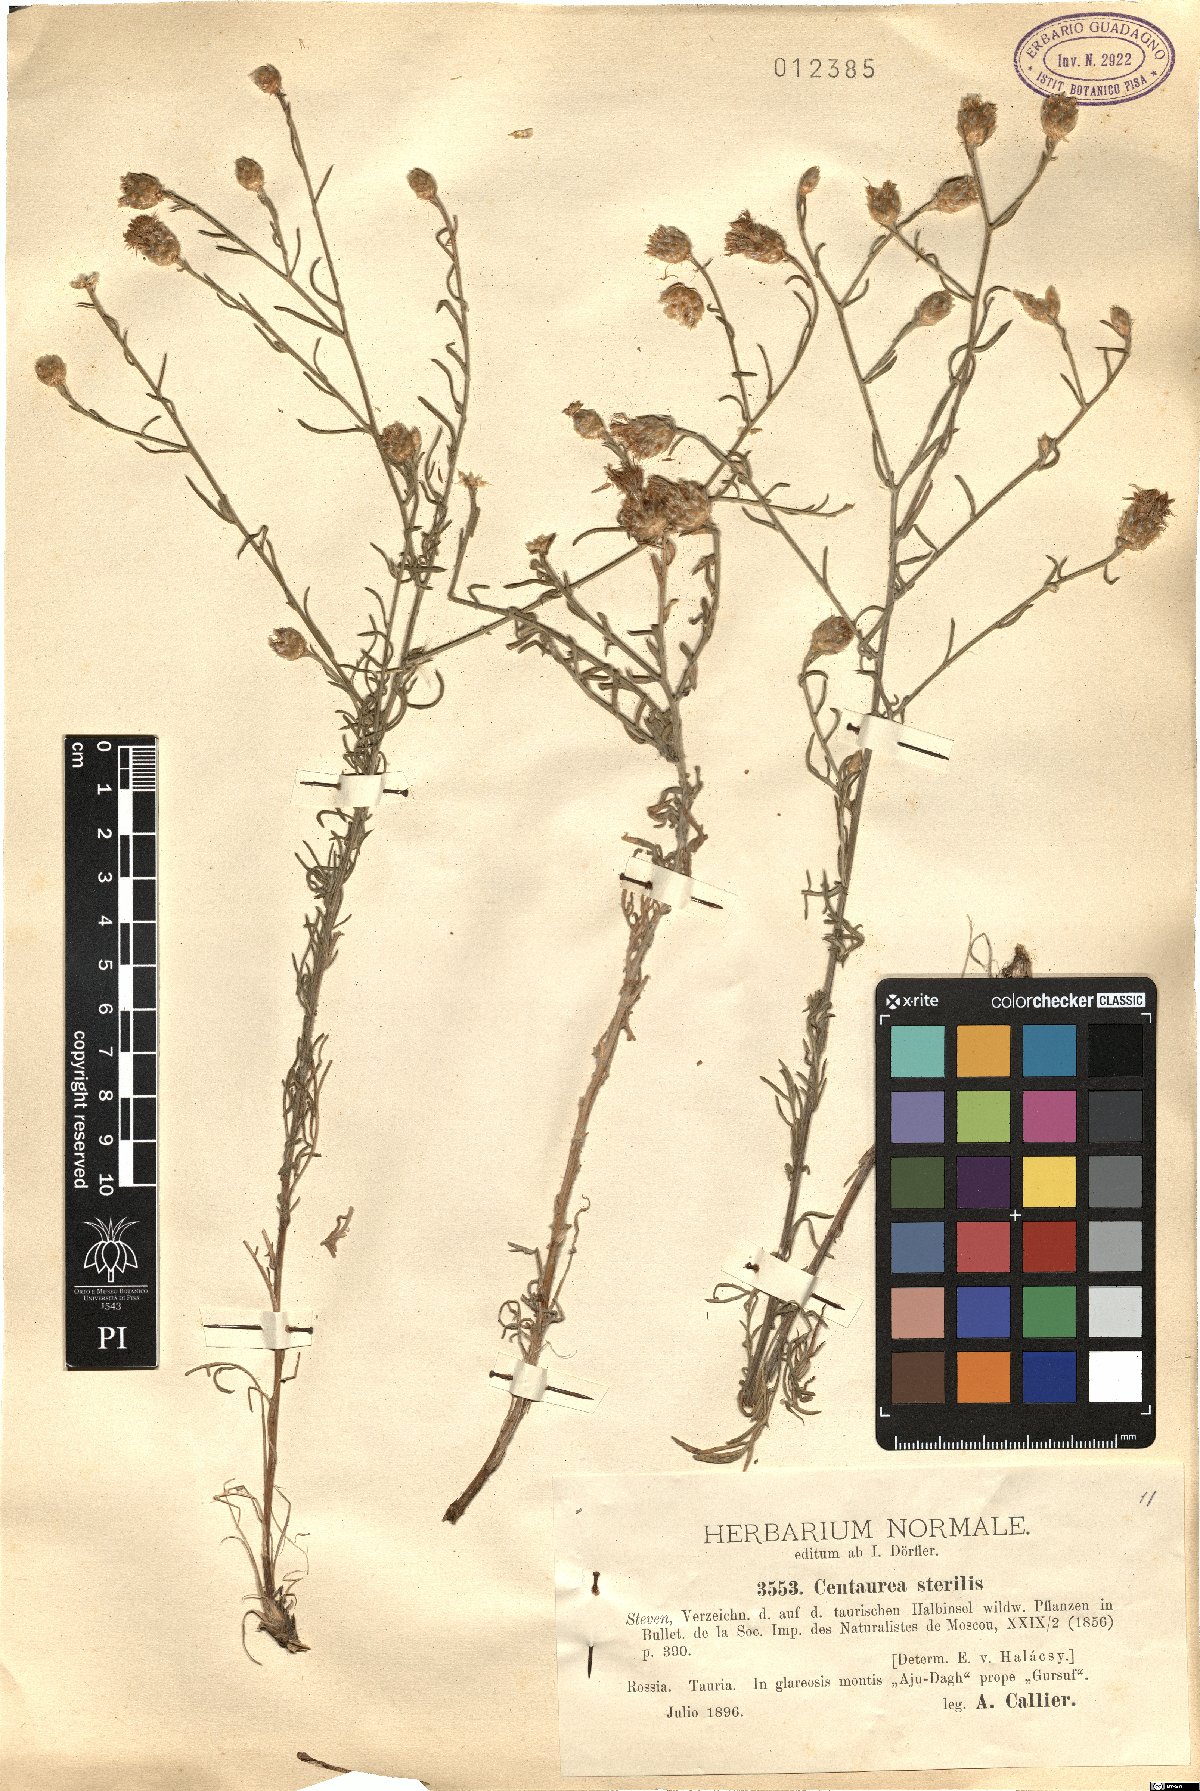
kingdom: Plantae
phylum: Tracheophyta
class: Magnoliopsida
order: Asterales
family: Asteraceae
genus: Centaurea
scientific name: Centaurea sterilis
